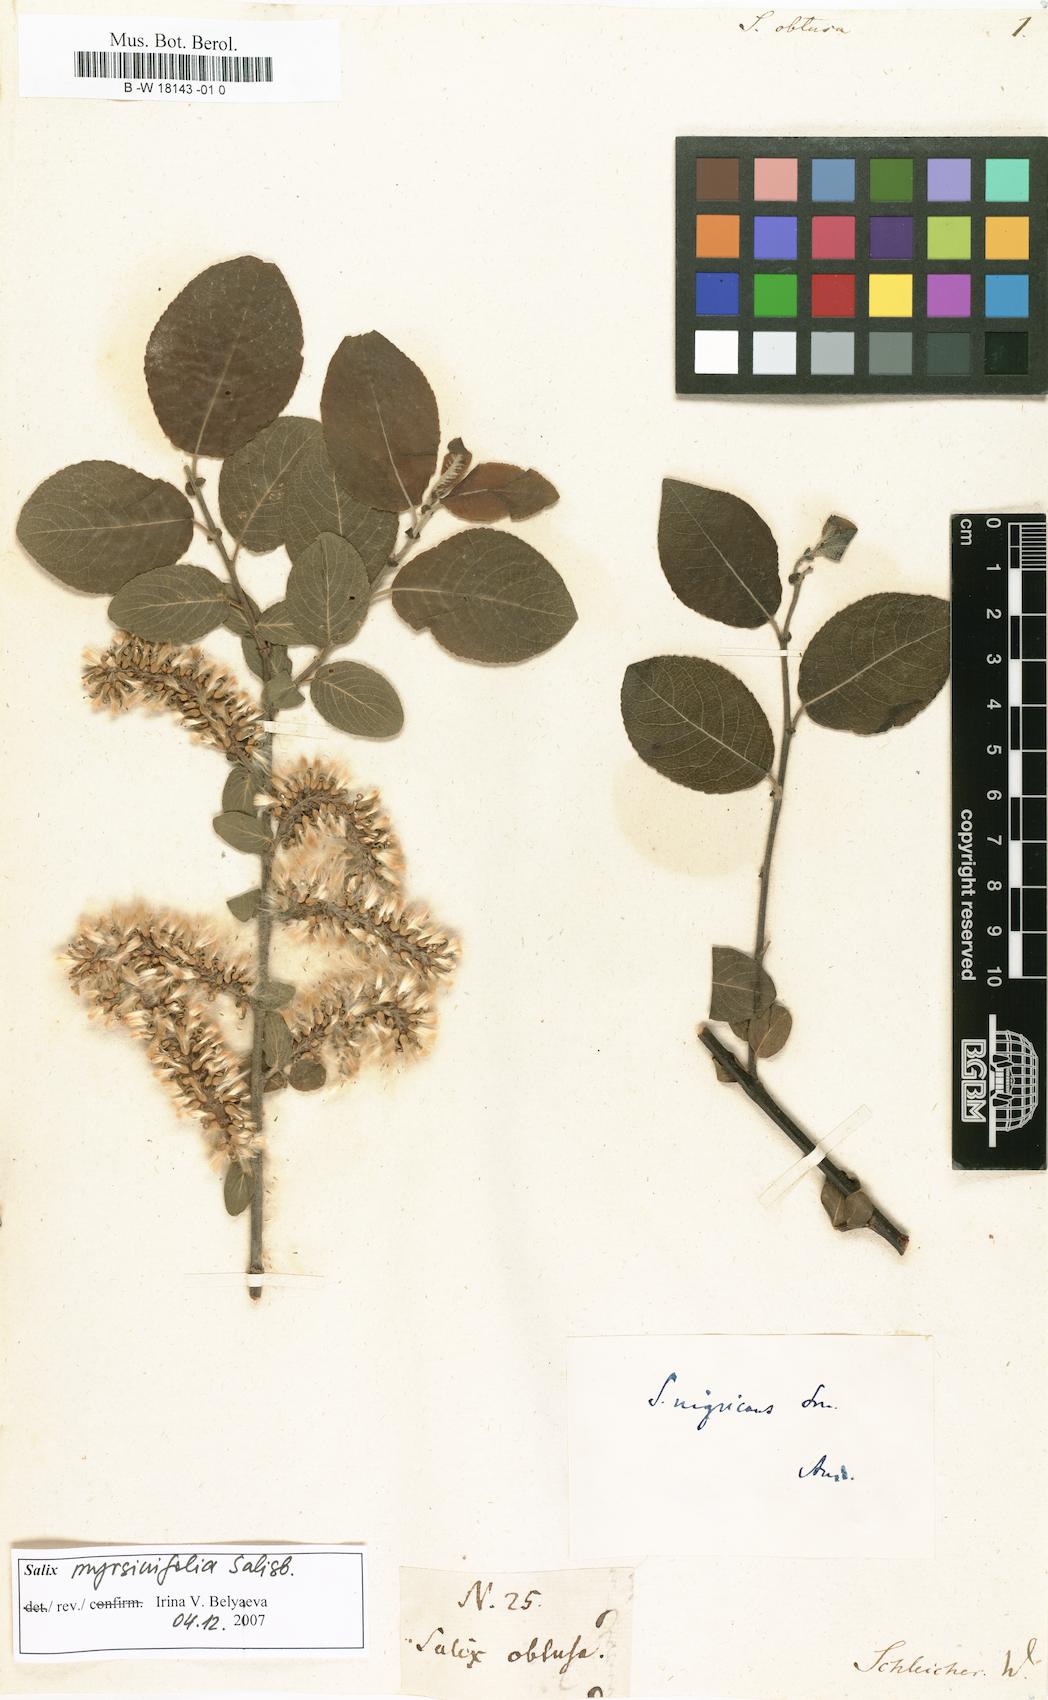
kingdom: Plantae
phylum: Tracheophyta
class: Magnoliopsida
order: Malpighiales
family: Salicaceae
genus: Salix
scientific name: Salix obtusa
